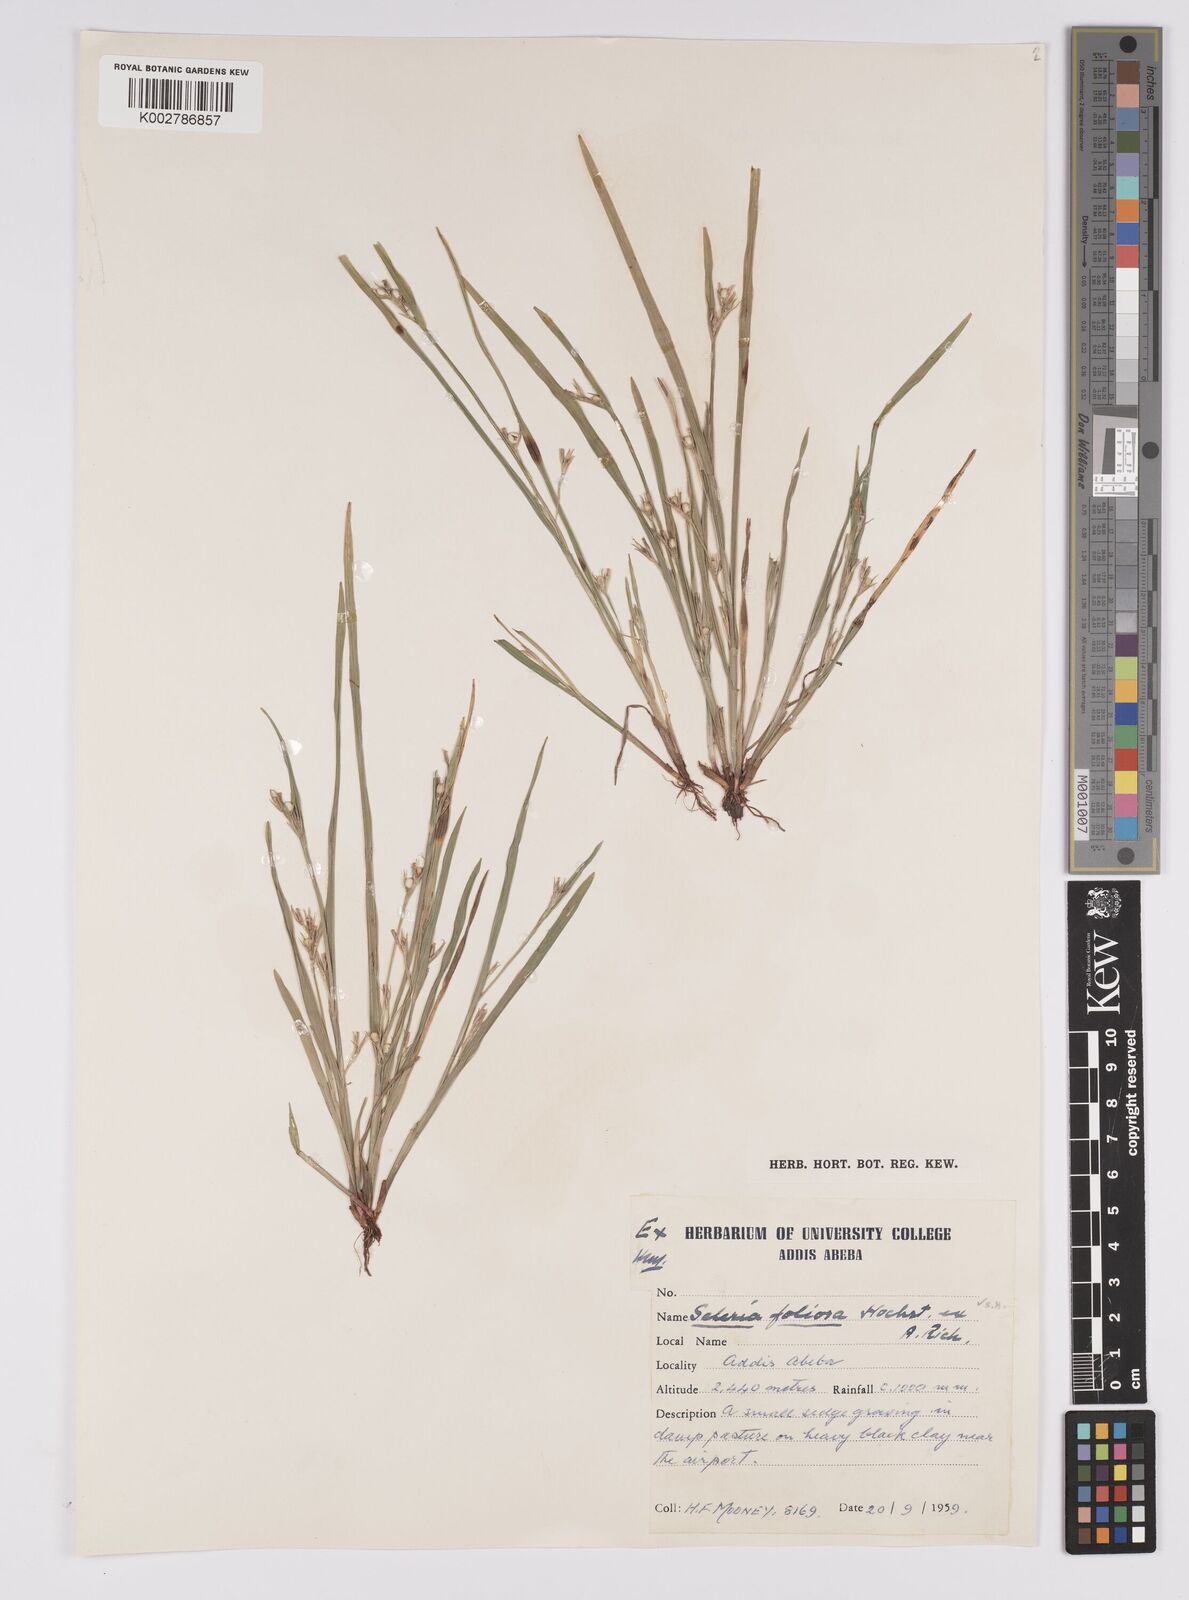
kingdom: Plantae
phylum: Tracheophyta
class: Liliopsida
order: Poales
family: Cyperaceae
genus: Scleria
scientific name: Scleria clathrata
